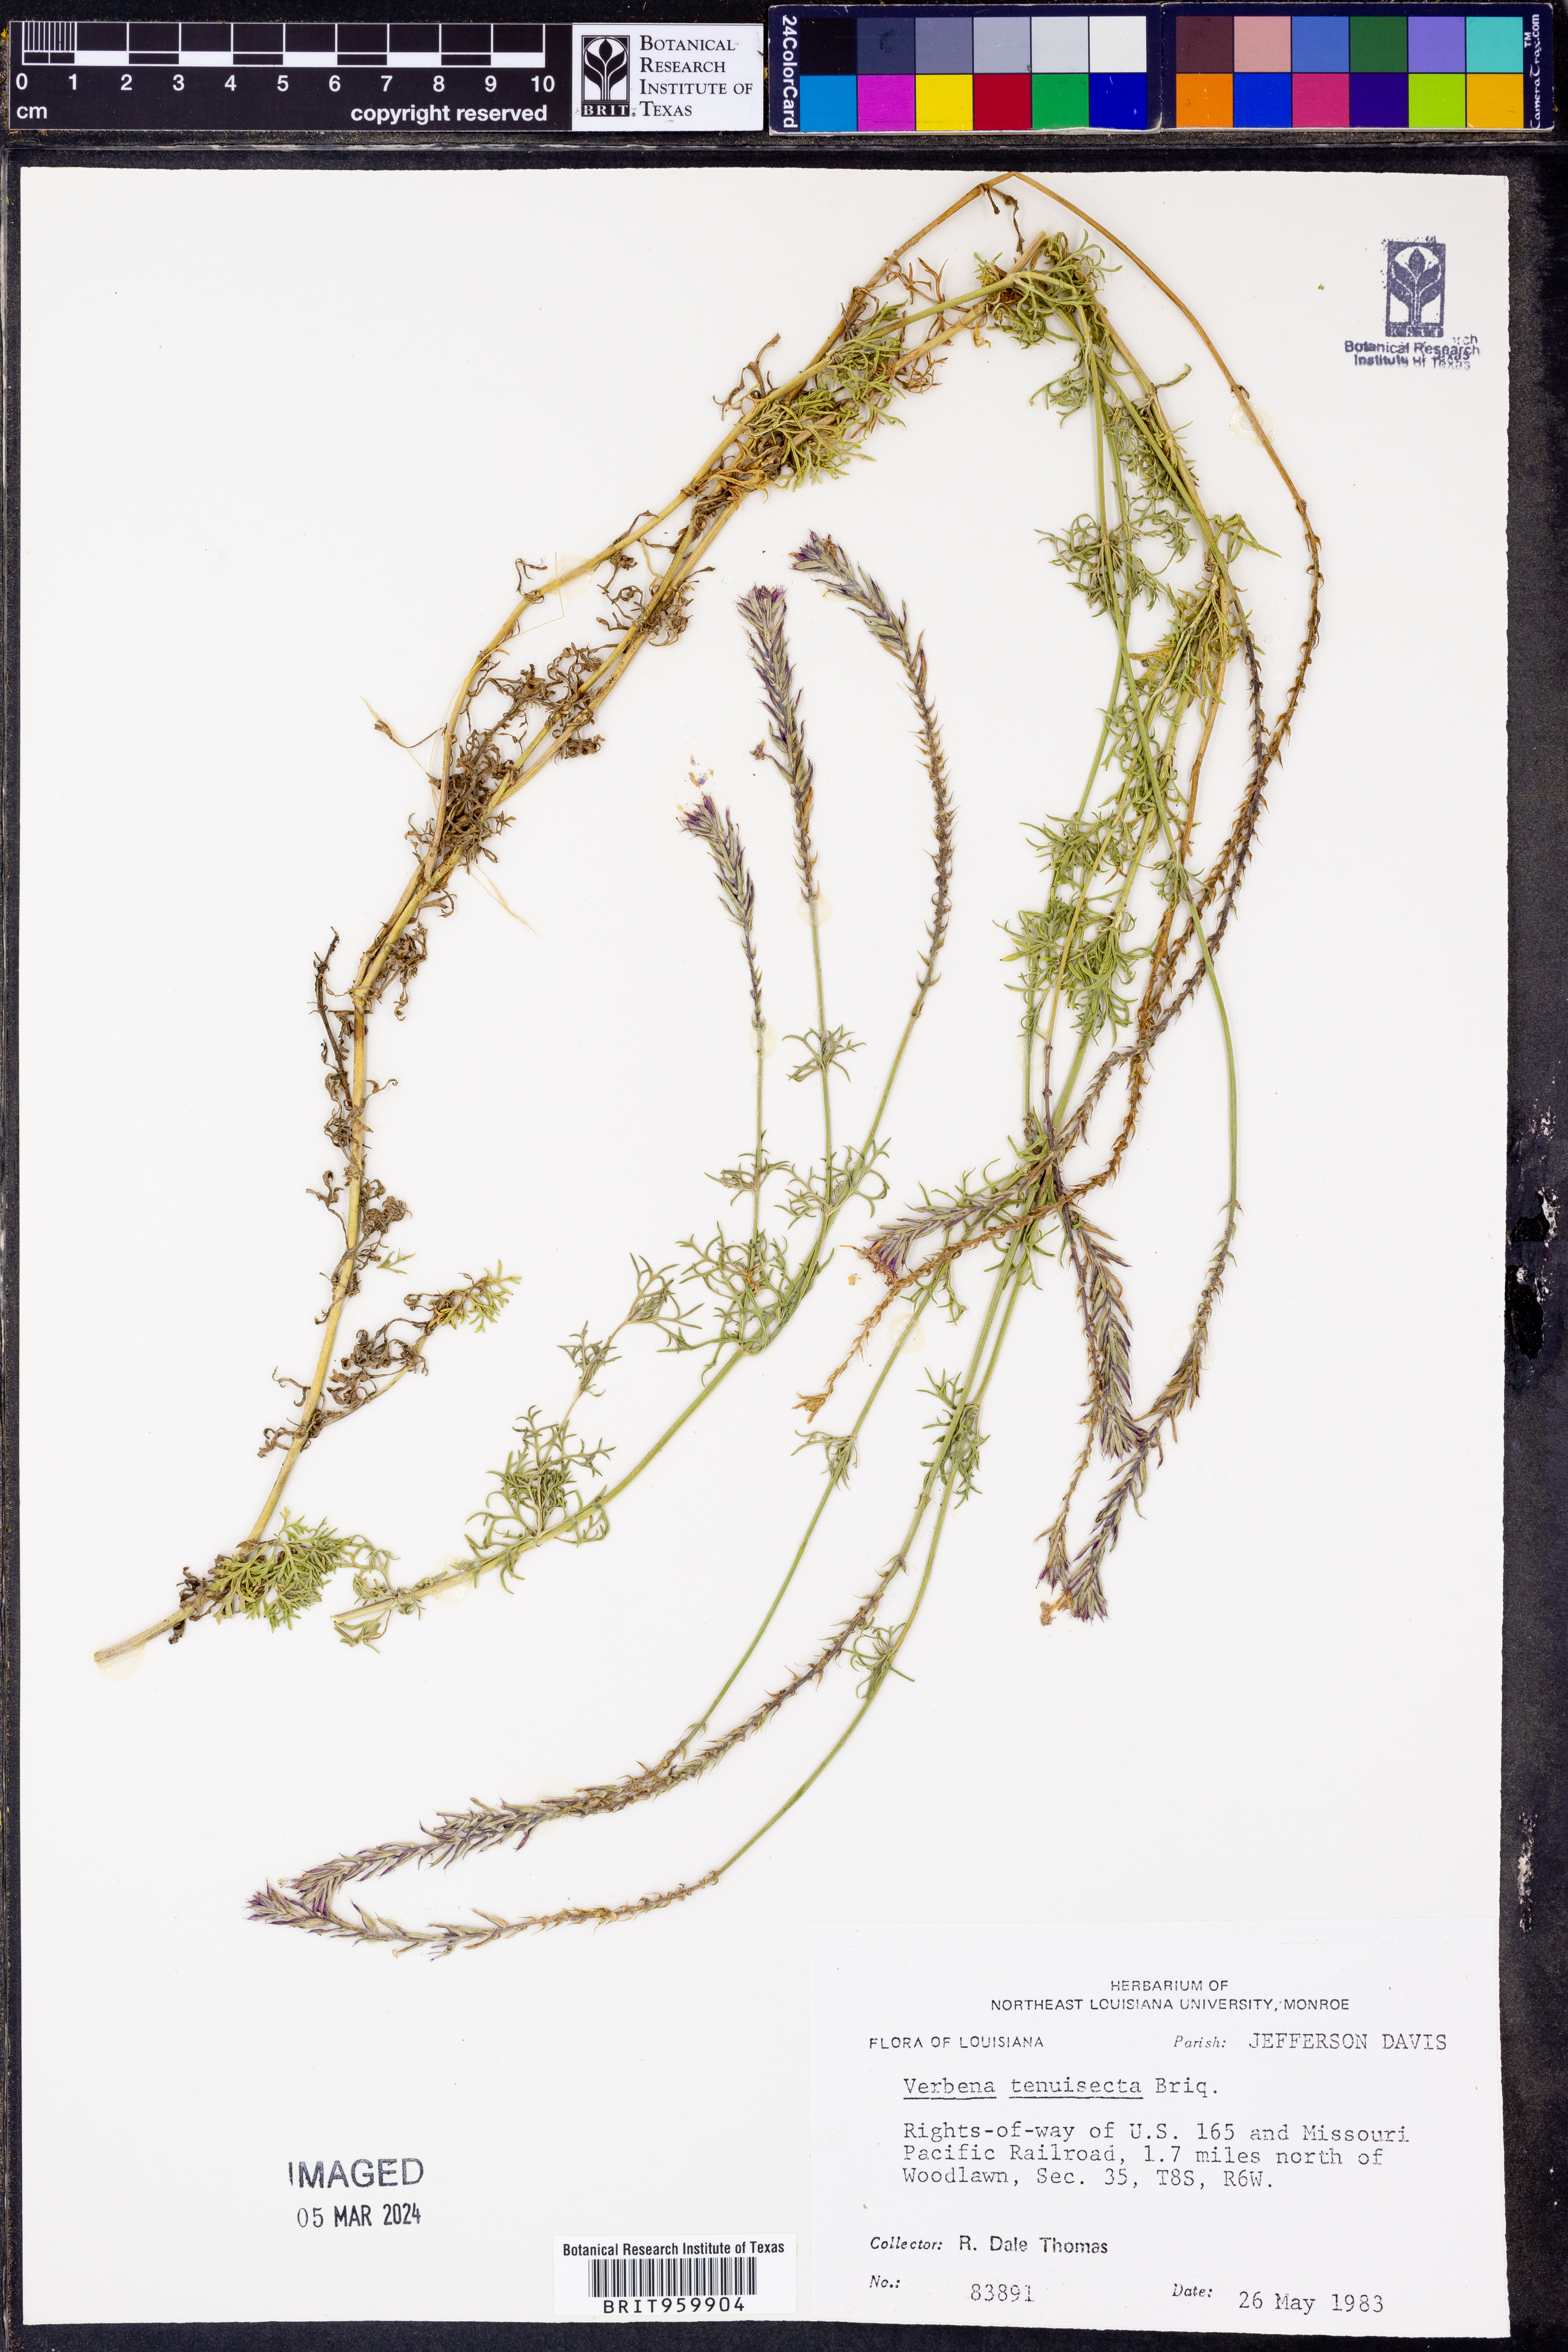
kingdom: Plantae
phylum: Tracheophyta
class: Magnoliopsida
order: Lamiales
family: Verbenaceae
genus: Verbena
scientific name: Verbena tenera
